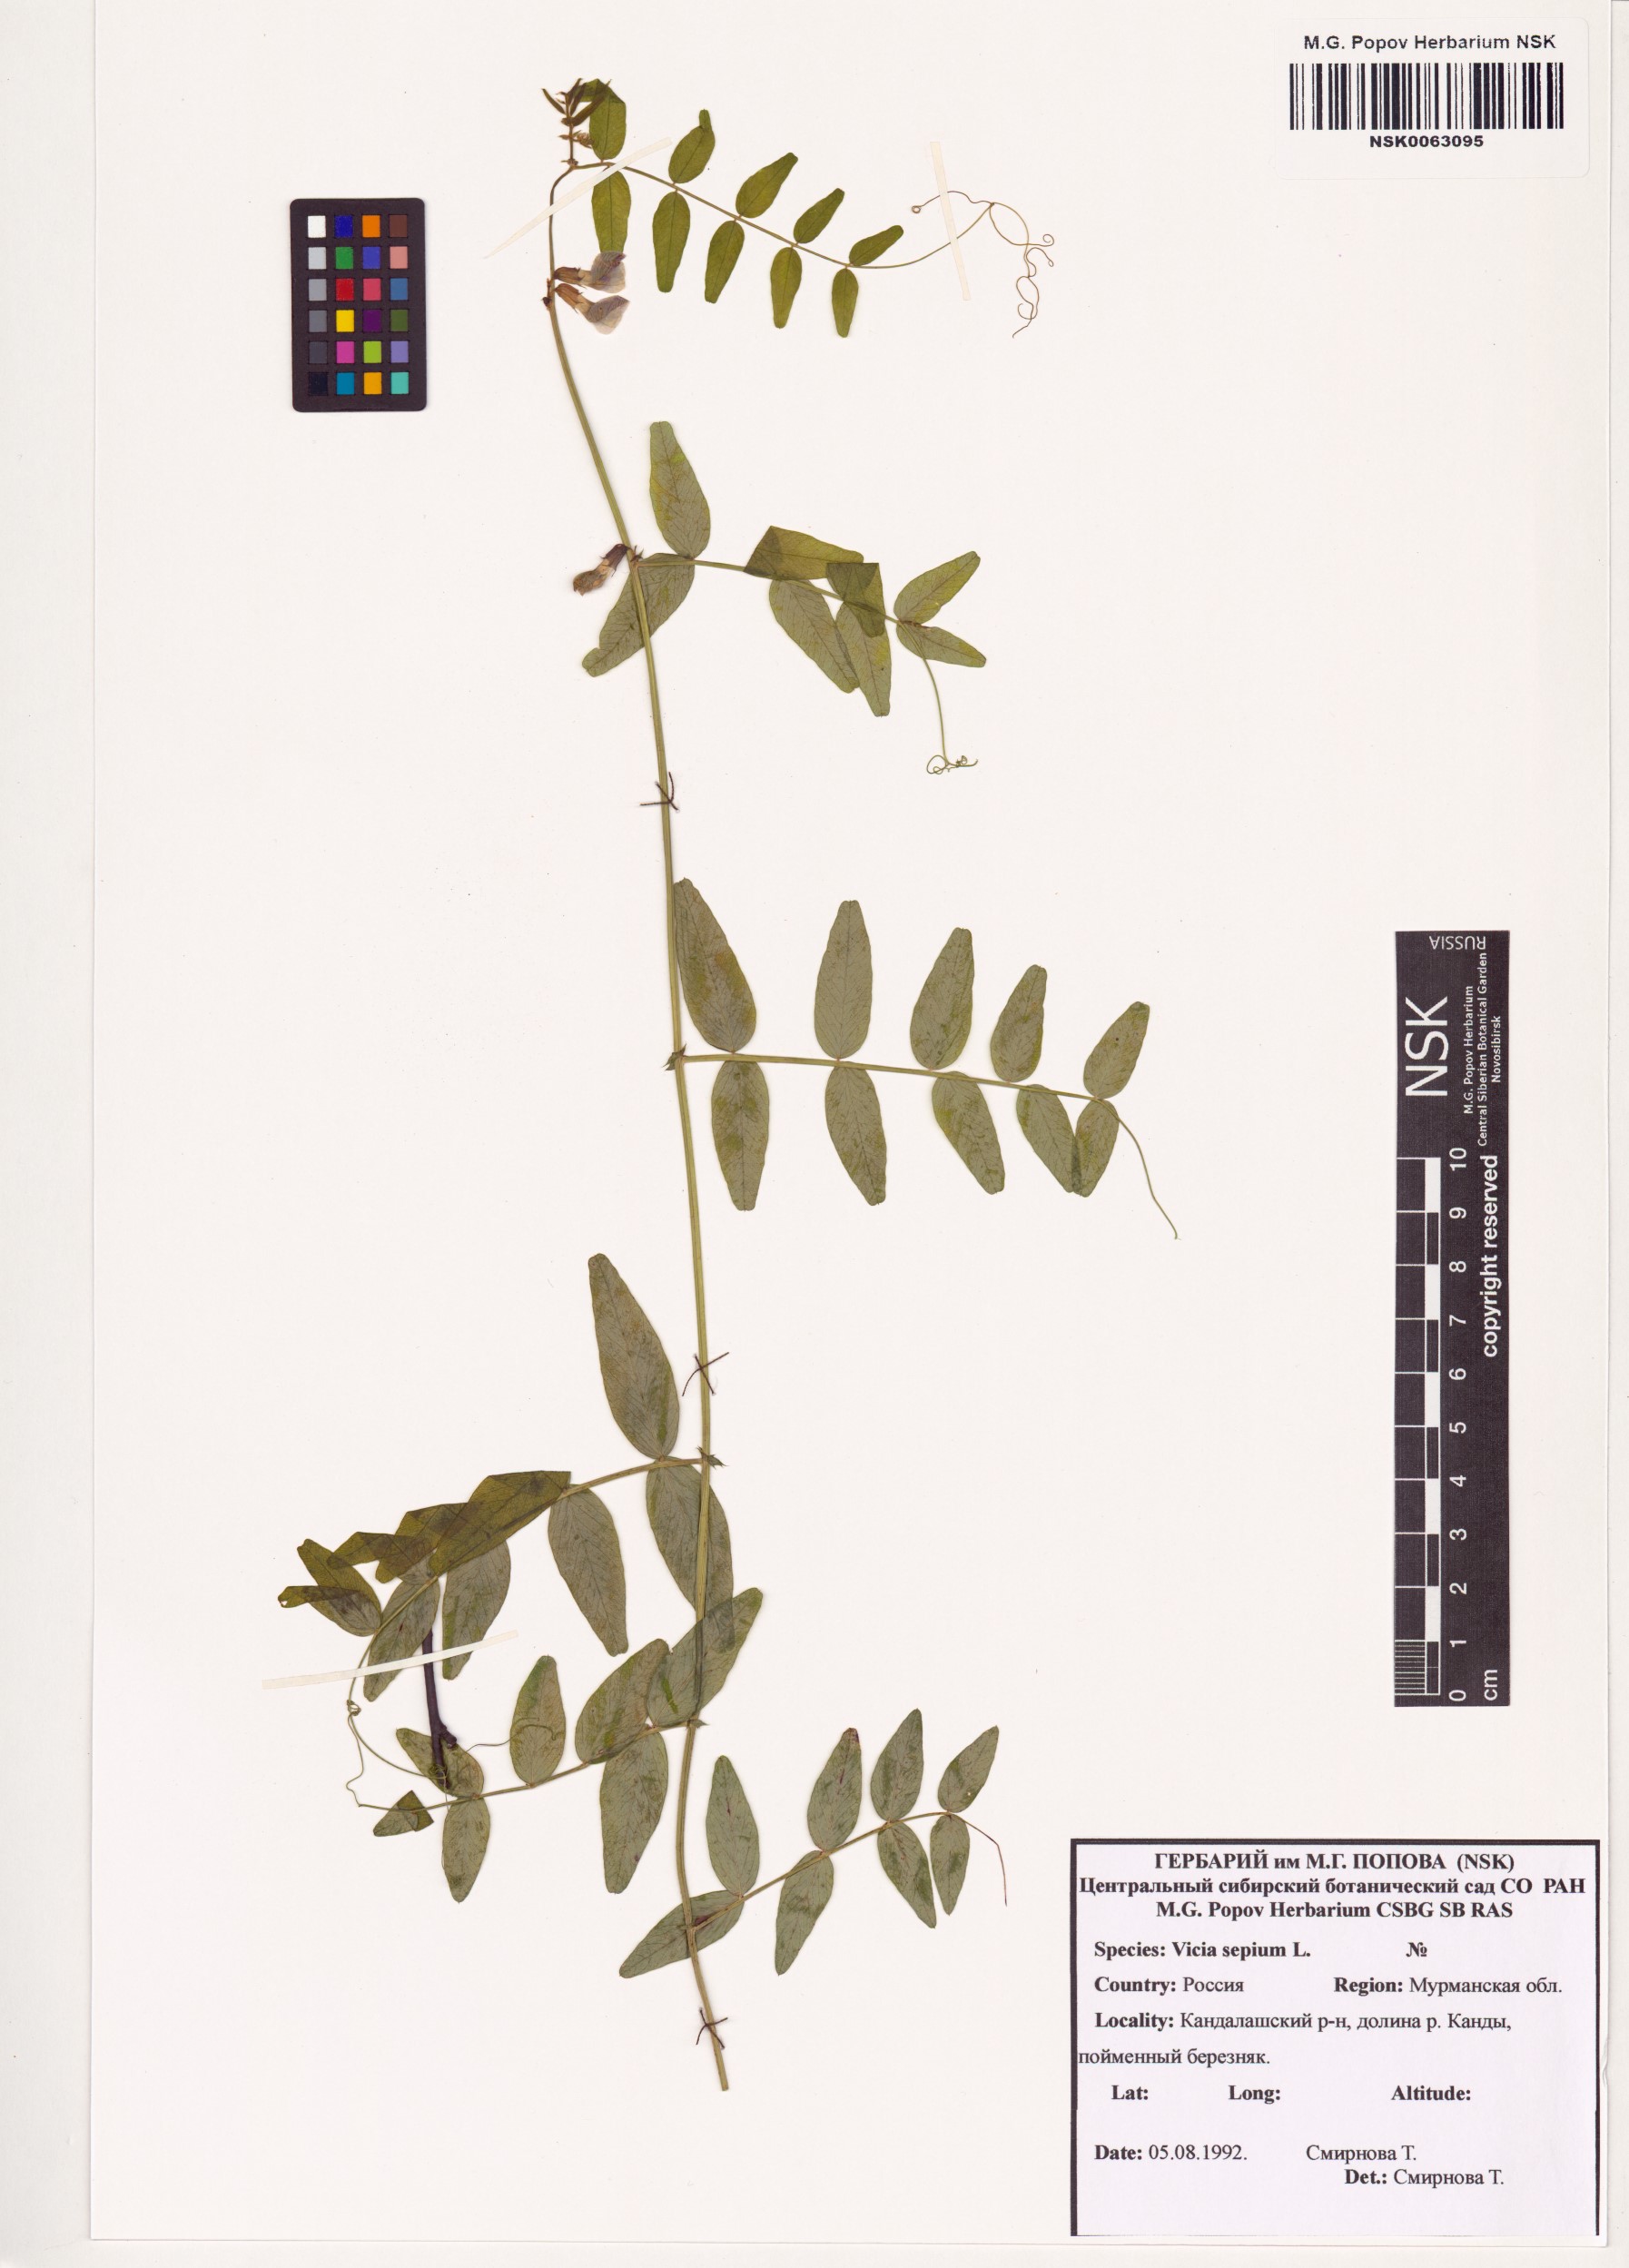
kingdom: Plantae
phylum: Tracheophyta
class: Magnoliopsida
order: Fabales
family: Fabaceae
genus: Vicia
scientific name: Vicia sepium
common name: Bush vetch
